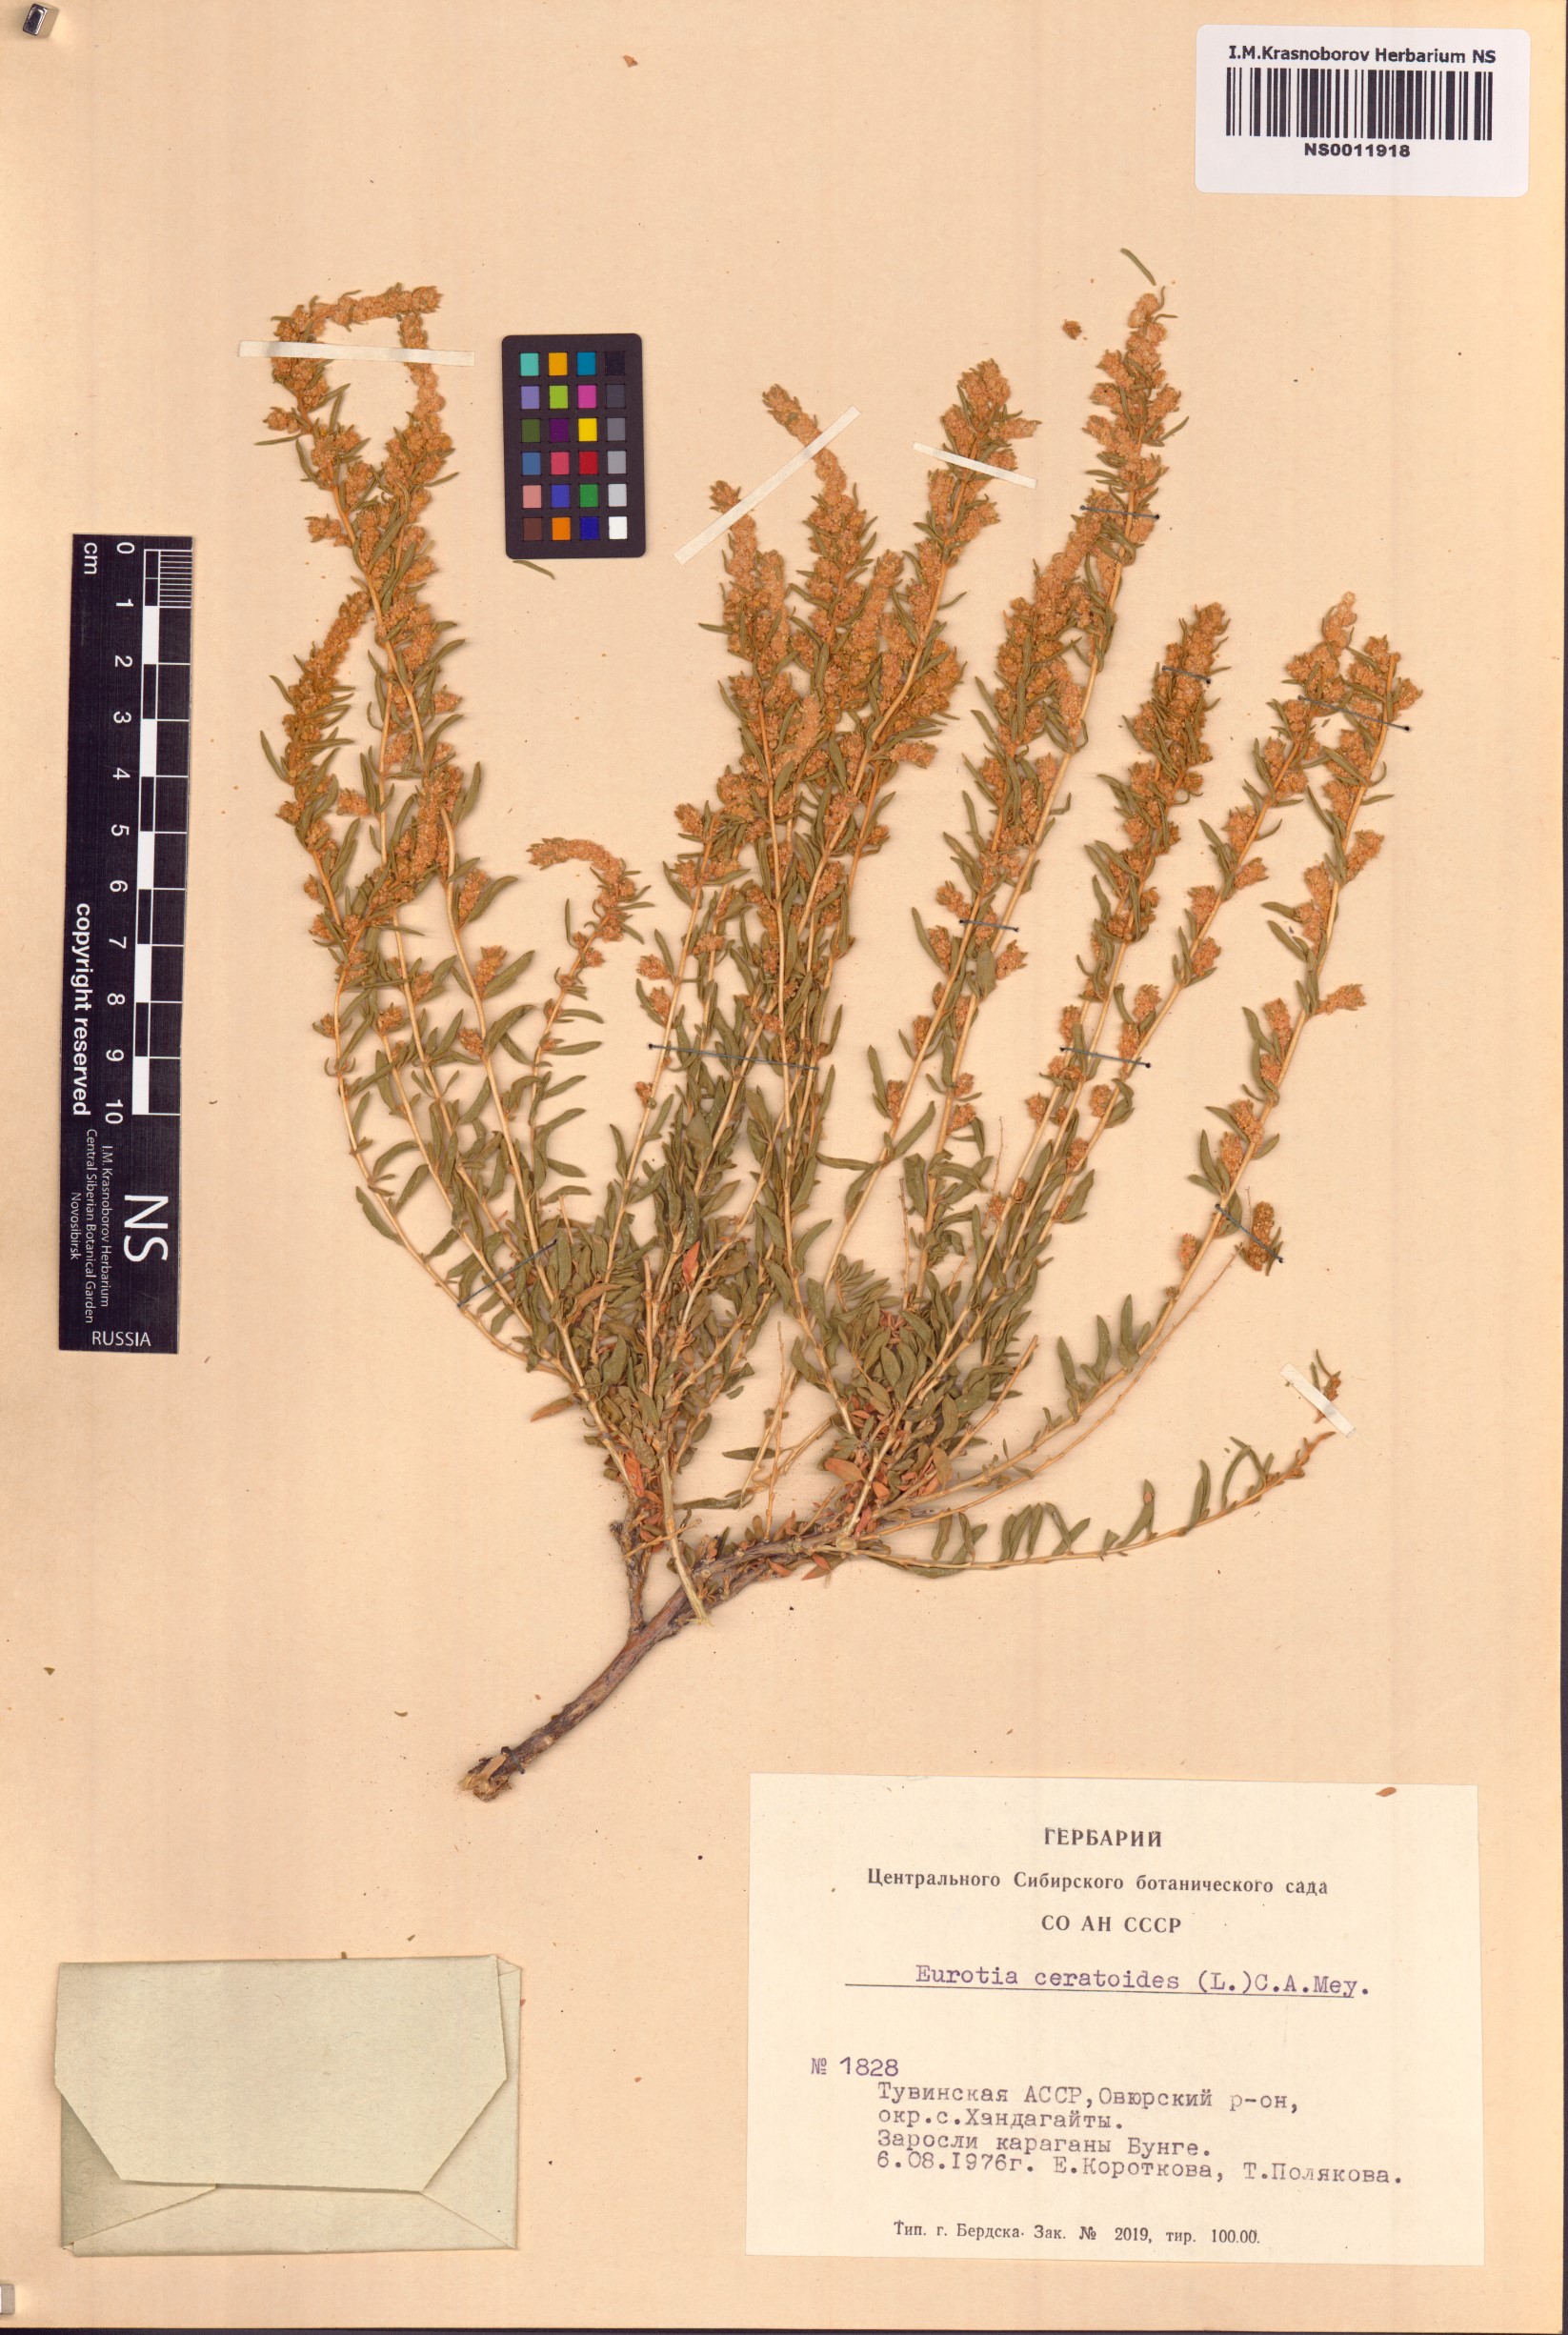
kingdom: Plantae
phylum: Tracheophyta
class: Magnoliopsida
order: Caryophyllales
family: Amaranthaceae
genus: Krascheninnikovia
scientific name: Krascheninnikovia ceratoides
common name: Pamirian winterfat
